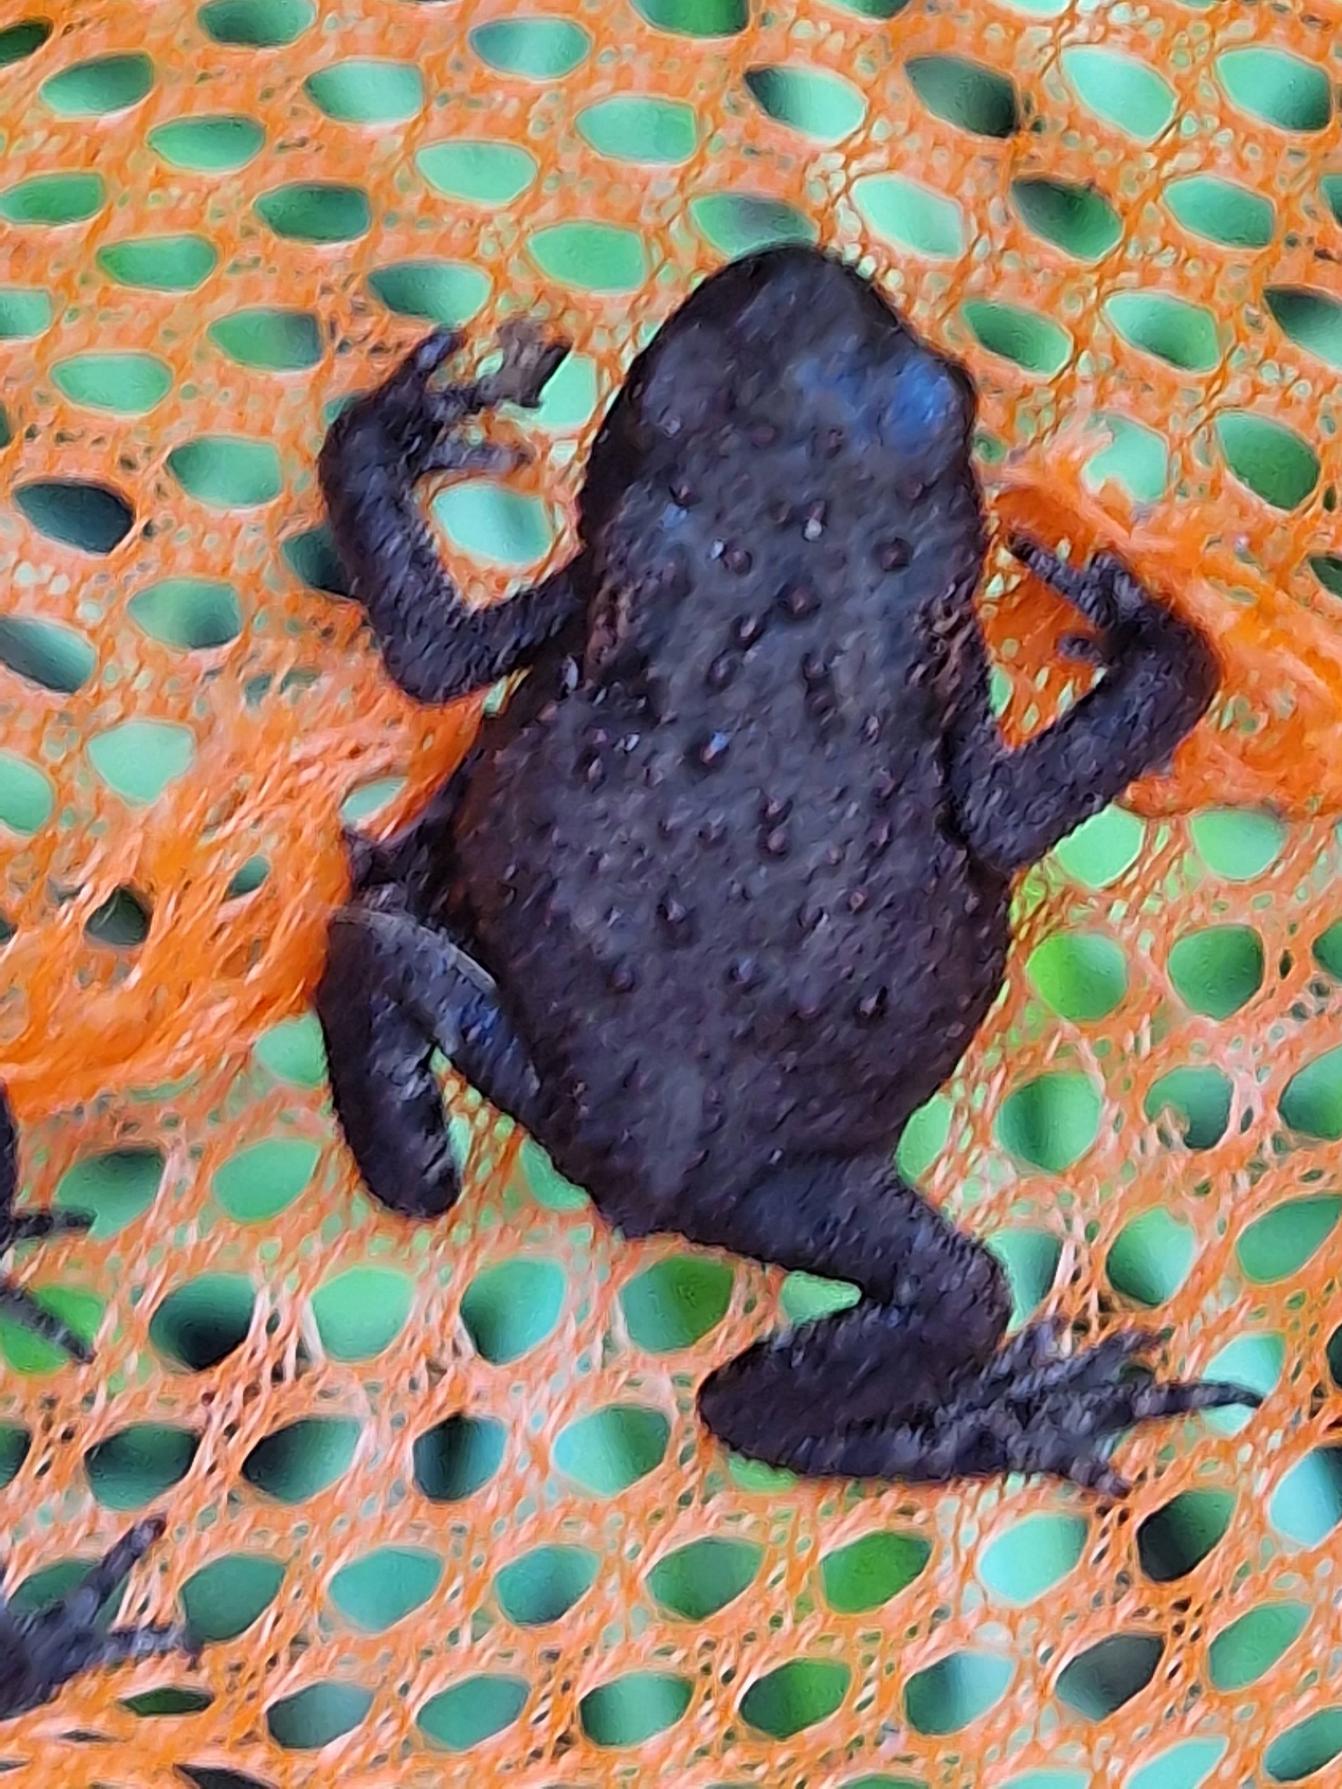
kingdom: Animalia
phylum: Chordata
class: Amphibia
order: Anura
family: Bufonidae
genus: Bufo
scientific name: Bufo bufo
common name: Skrubtudse
